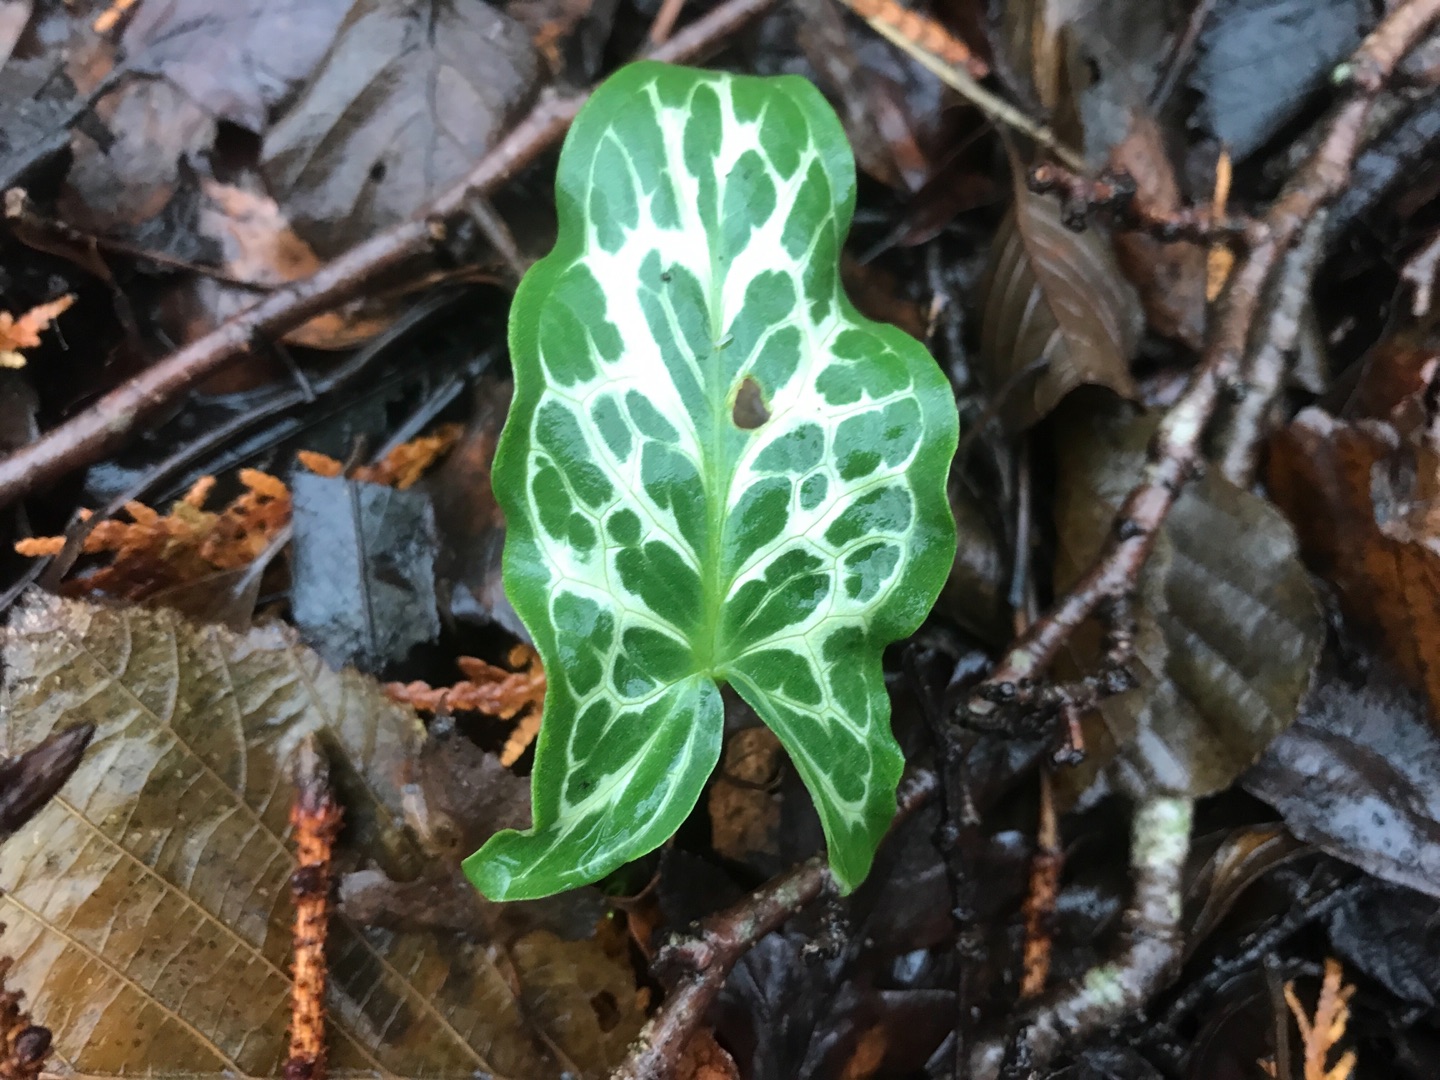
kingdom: Plantae
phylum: Tracheophyta
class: Liliopsida
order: Alismatales
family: Araceae
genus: Arum
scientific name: Arum italicum
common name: Italiensk arum
